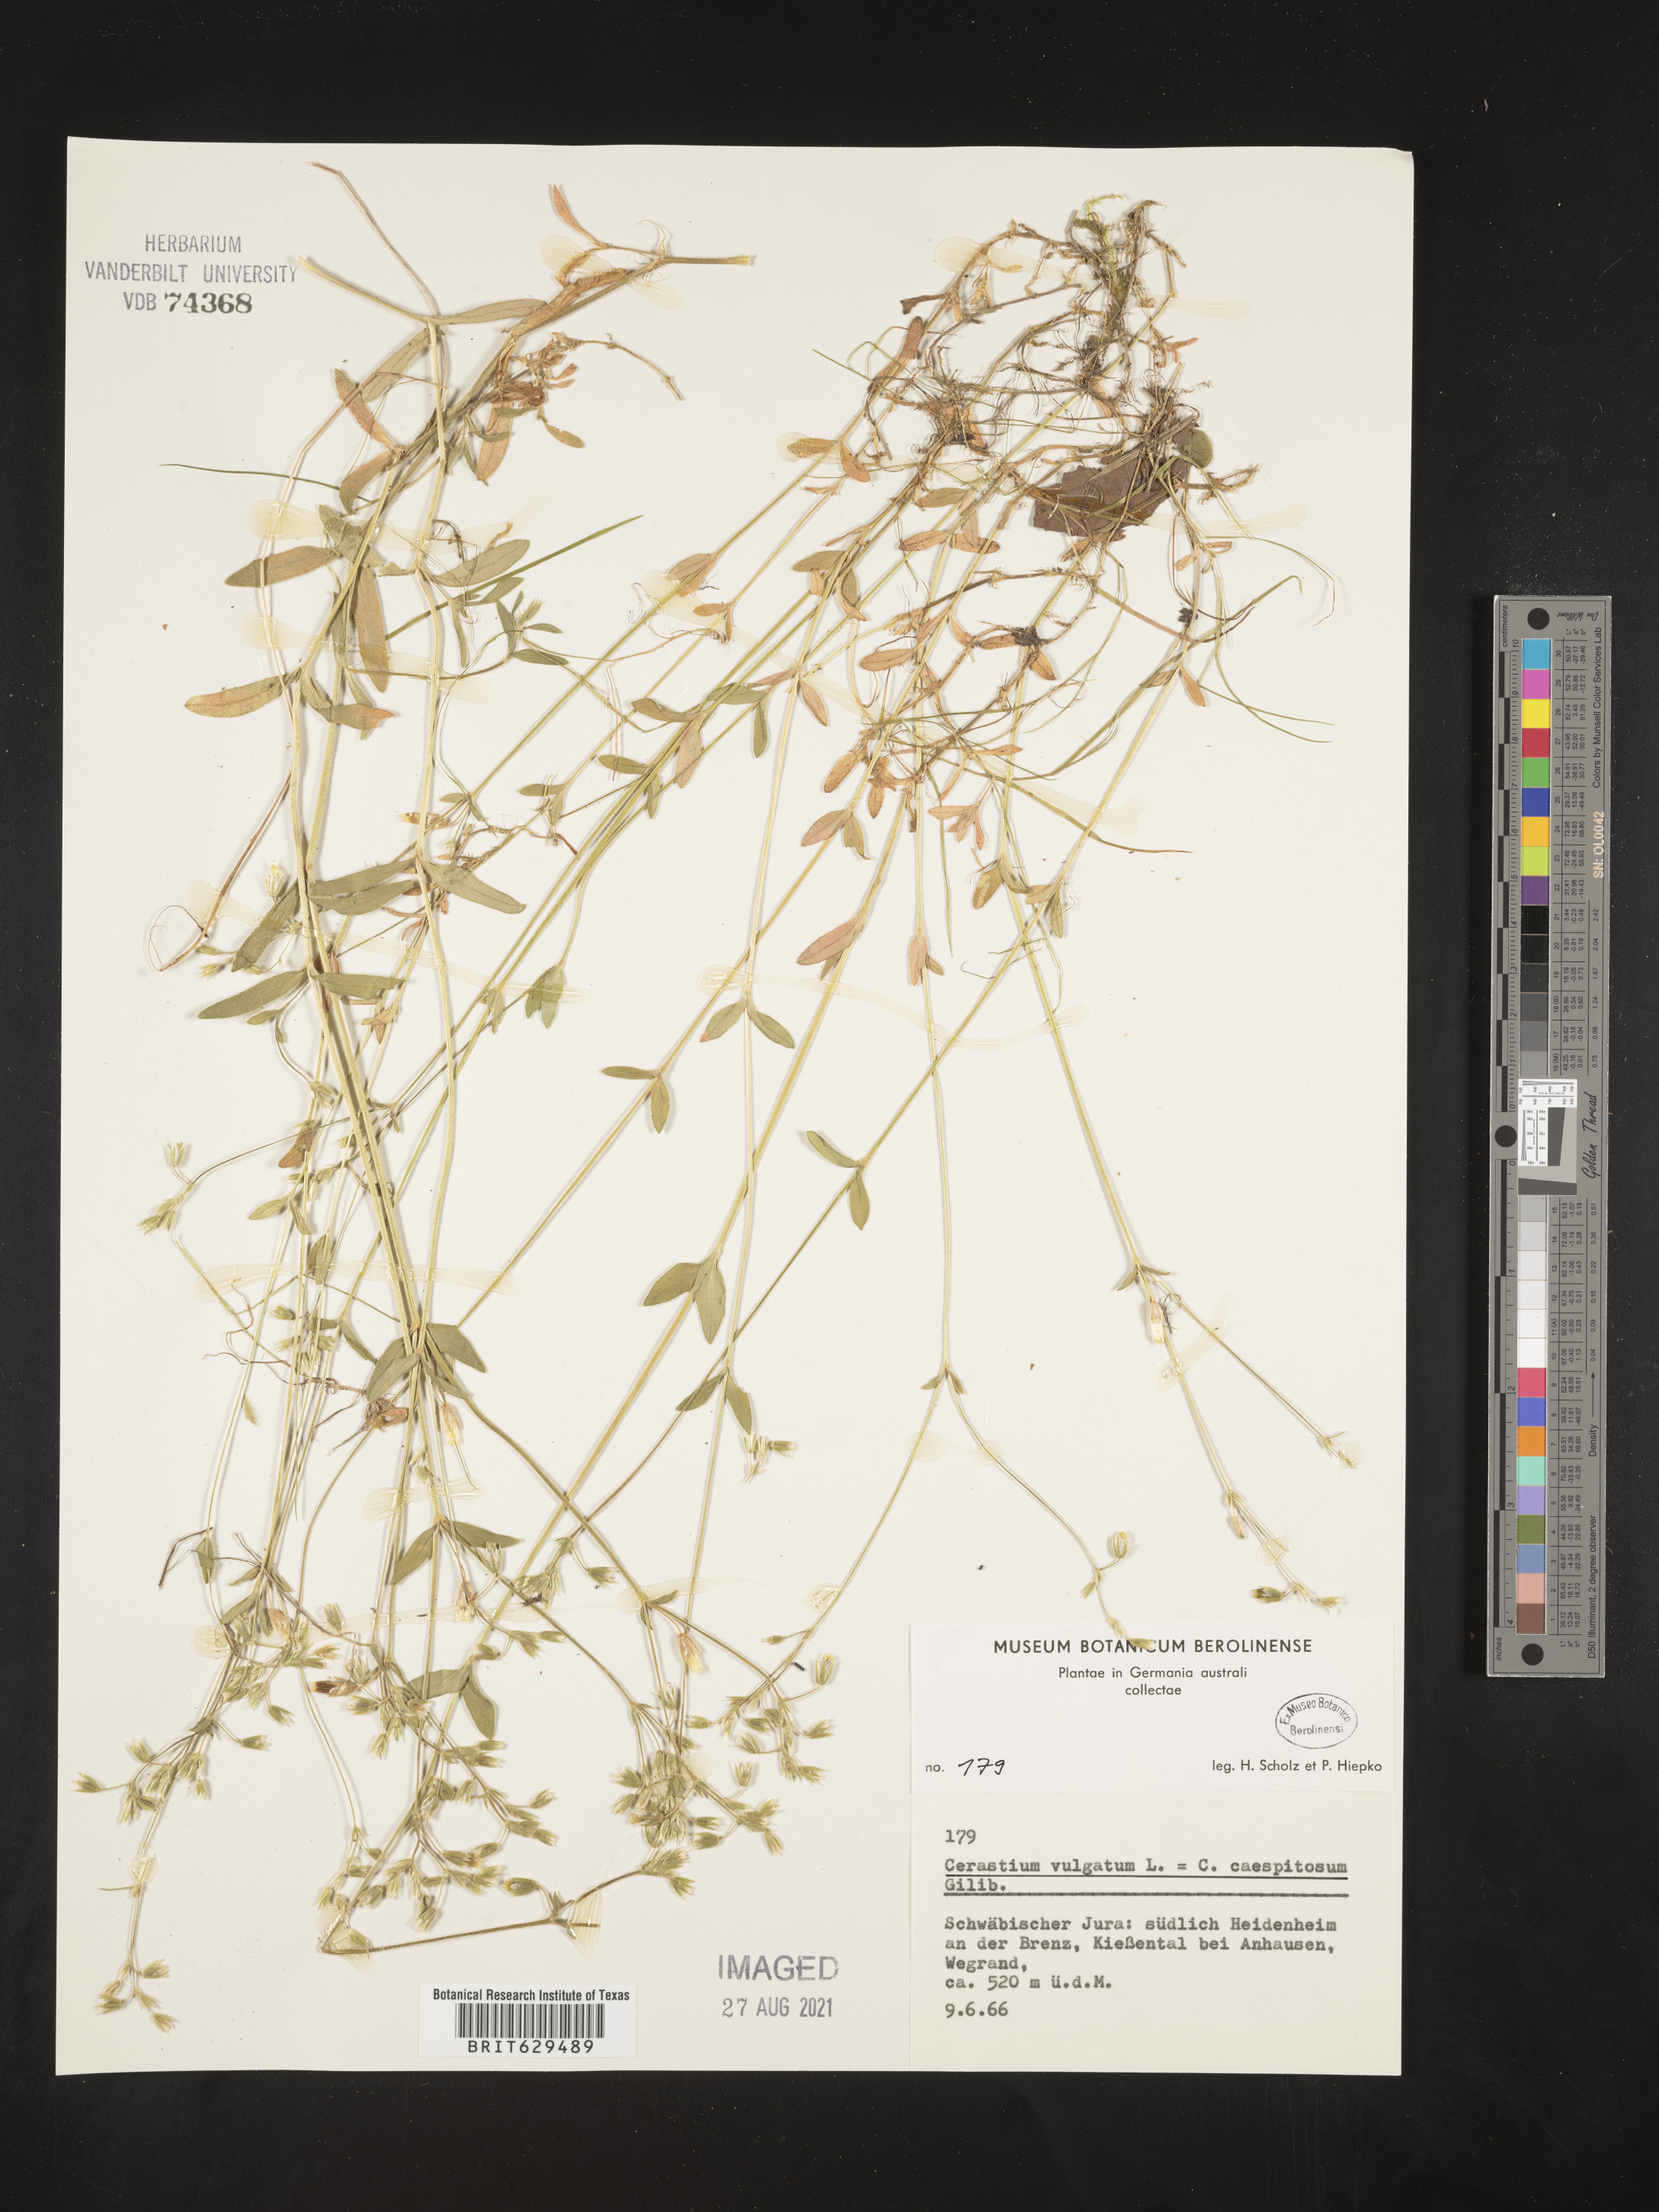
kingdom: Plantae
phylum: Tracheophyta
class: Magnoliopsida
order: Caryophyllales
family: Caryophyllaceae
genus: Cerastium
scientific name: Cerastium
